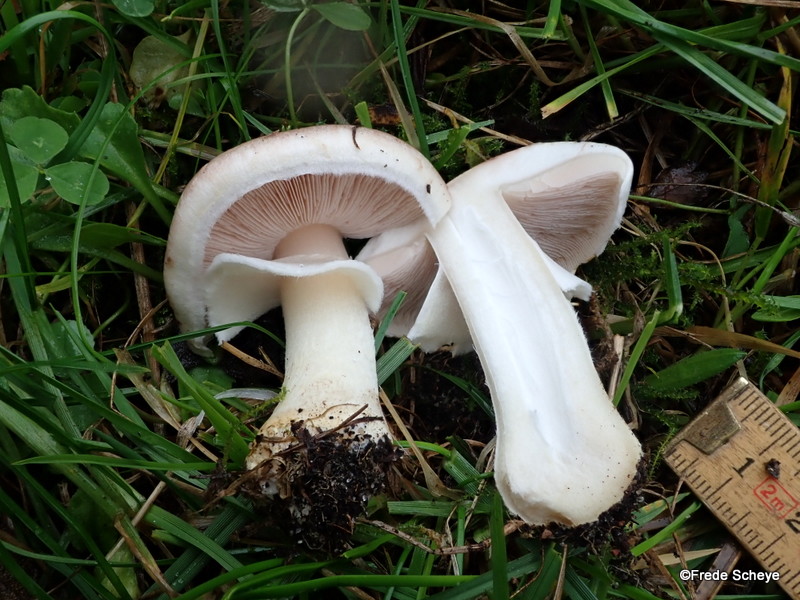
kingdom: Fungi
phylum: Basidiomycota
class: Agaricomycetes
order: Agaricales
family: Agaricaceae
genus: Agaricus
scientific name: Agaricus dulcidulus
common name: blegrød champignon
